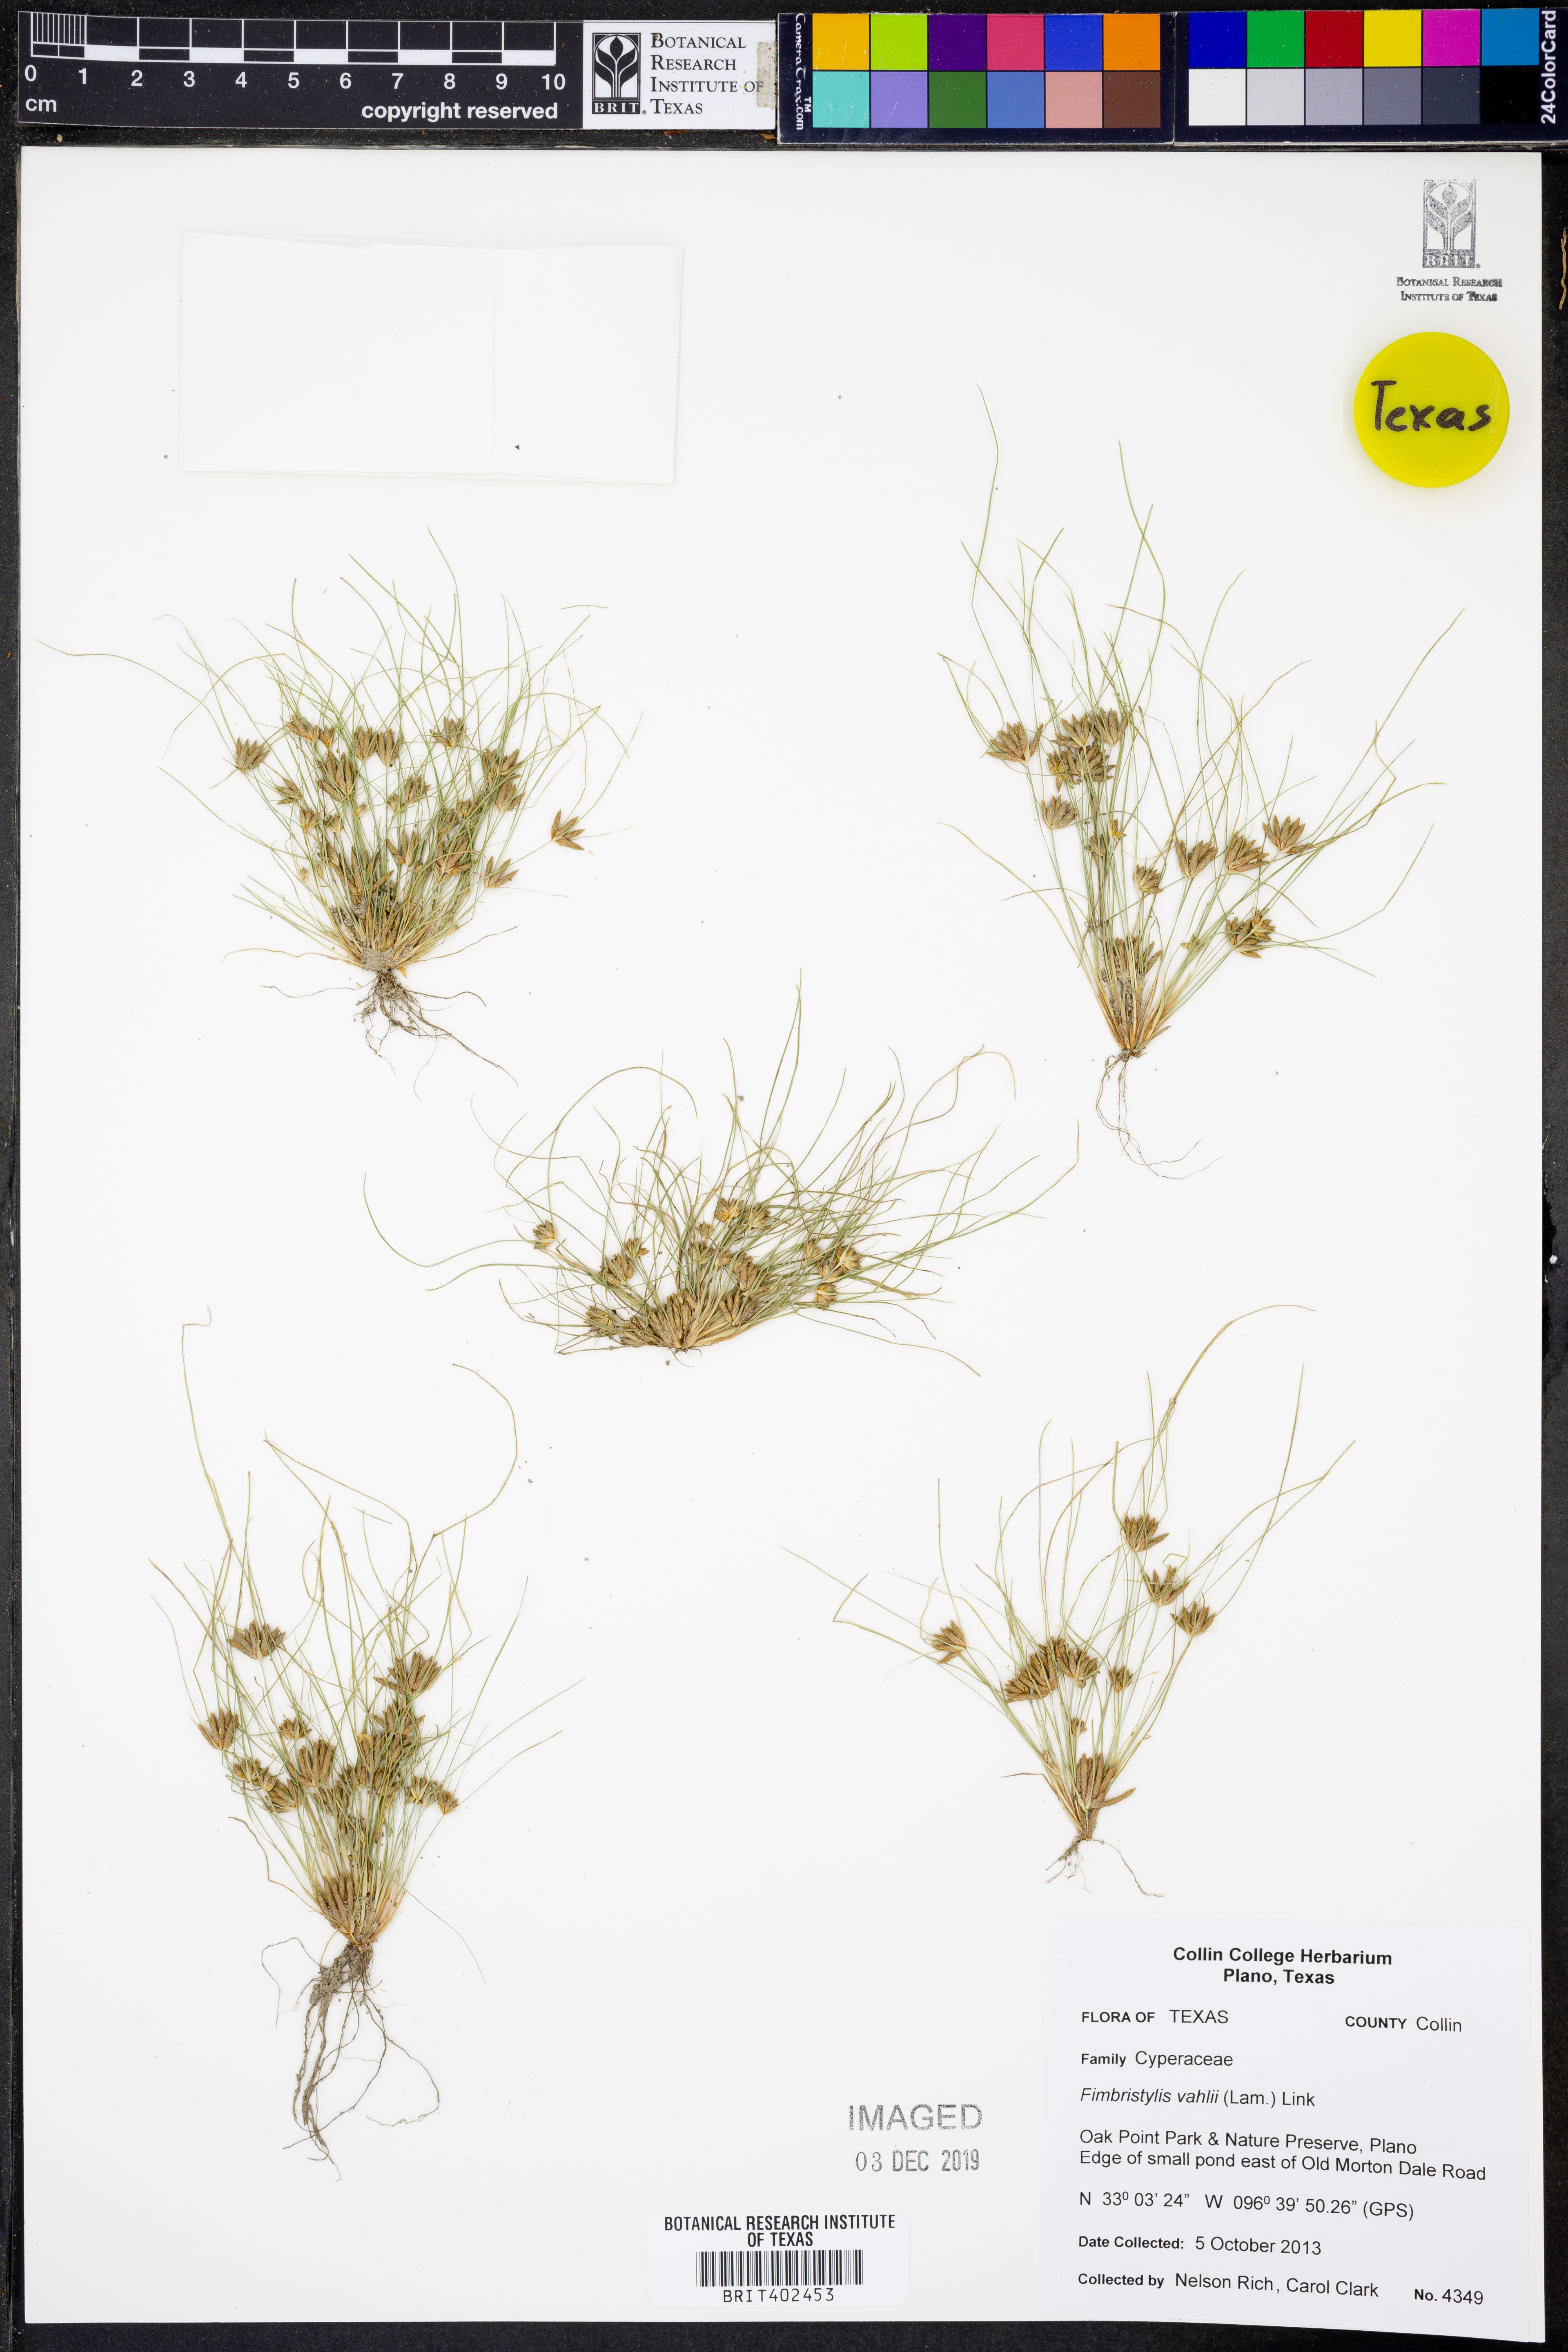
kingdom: Plantae
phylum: Tracheophyta
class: Liliopsida
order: Poales
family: Cyperaceae
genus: Fimbristylis
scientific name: Fimbristylis vahlii
